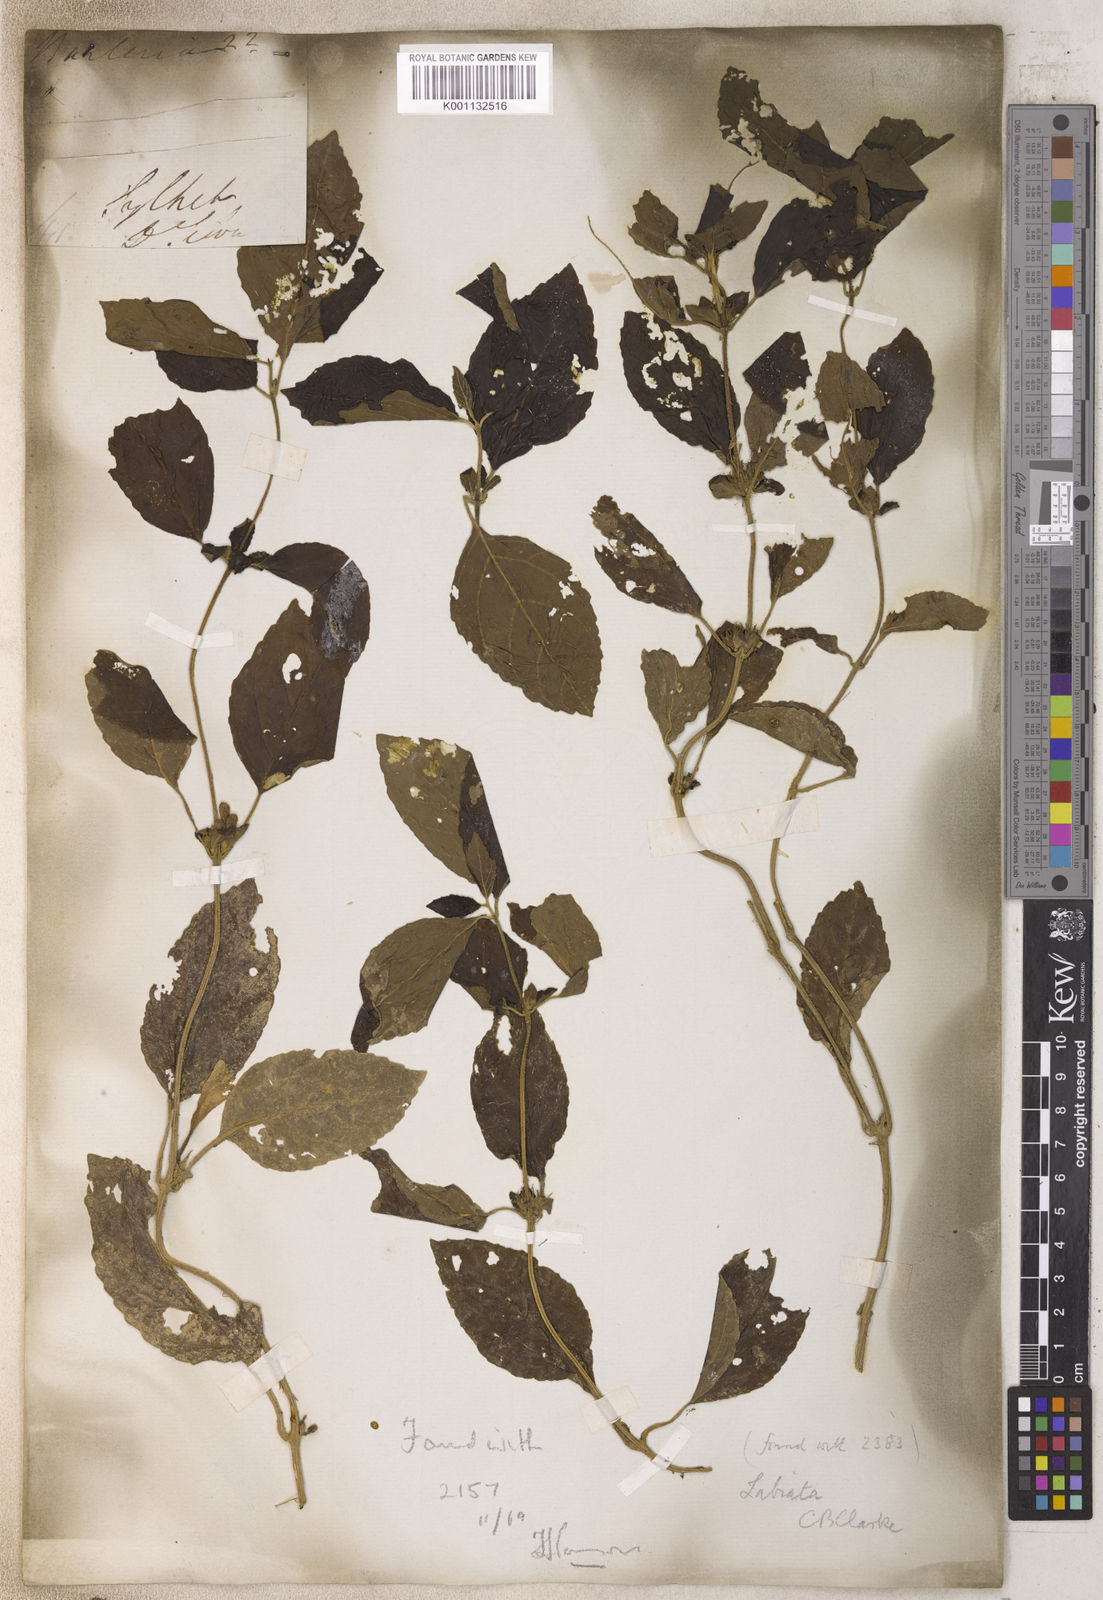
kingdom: Plantae
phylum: Tracheophyta
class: Magnoliopsida
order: Lamiales
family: Lamiaceae
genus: Gomphostemma
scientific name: Gomphostemma
